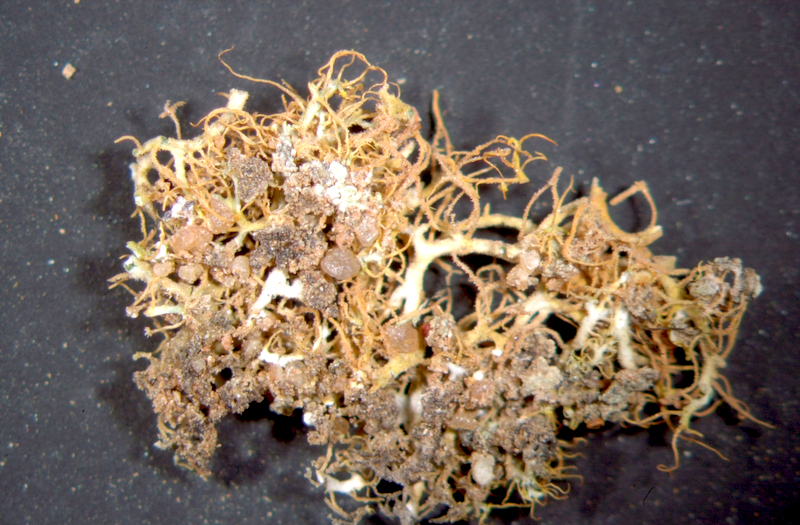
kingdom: Fungi
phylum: Ascomycota
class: Lecanoromycetes
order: Teloschistales
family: Teloschistaceae
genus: Teloschistes
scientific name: Teloschistes capensis
